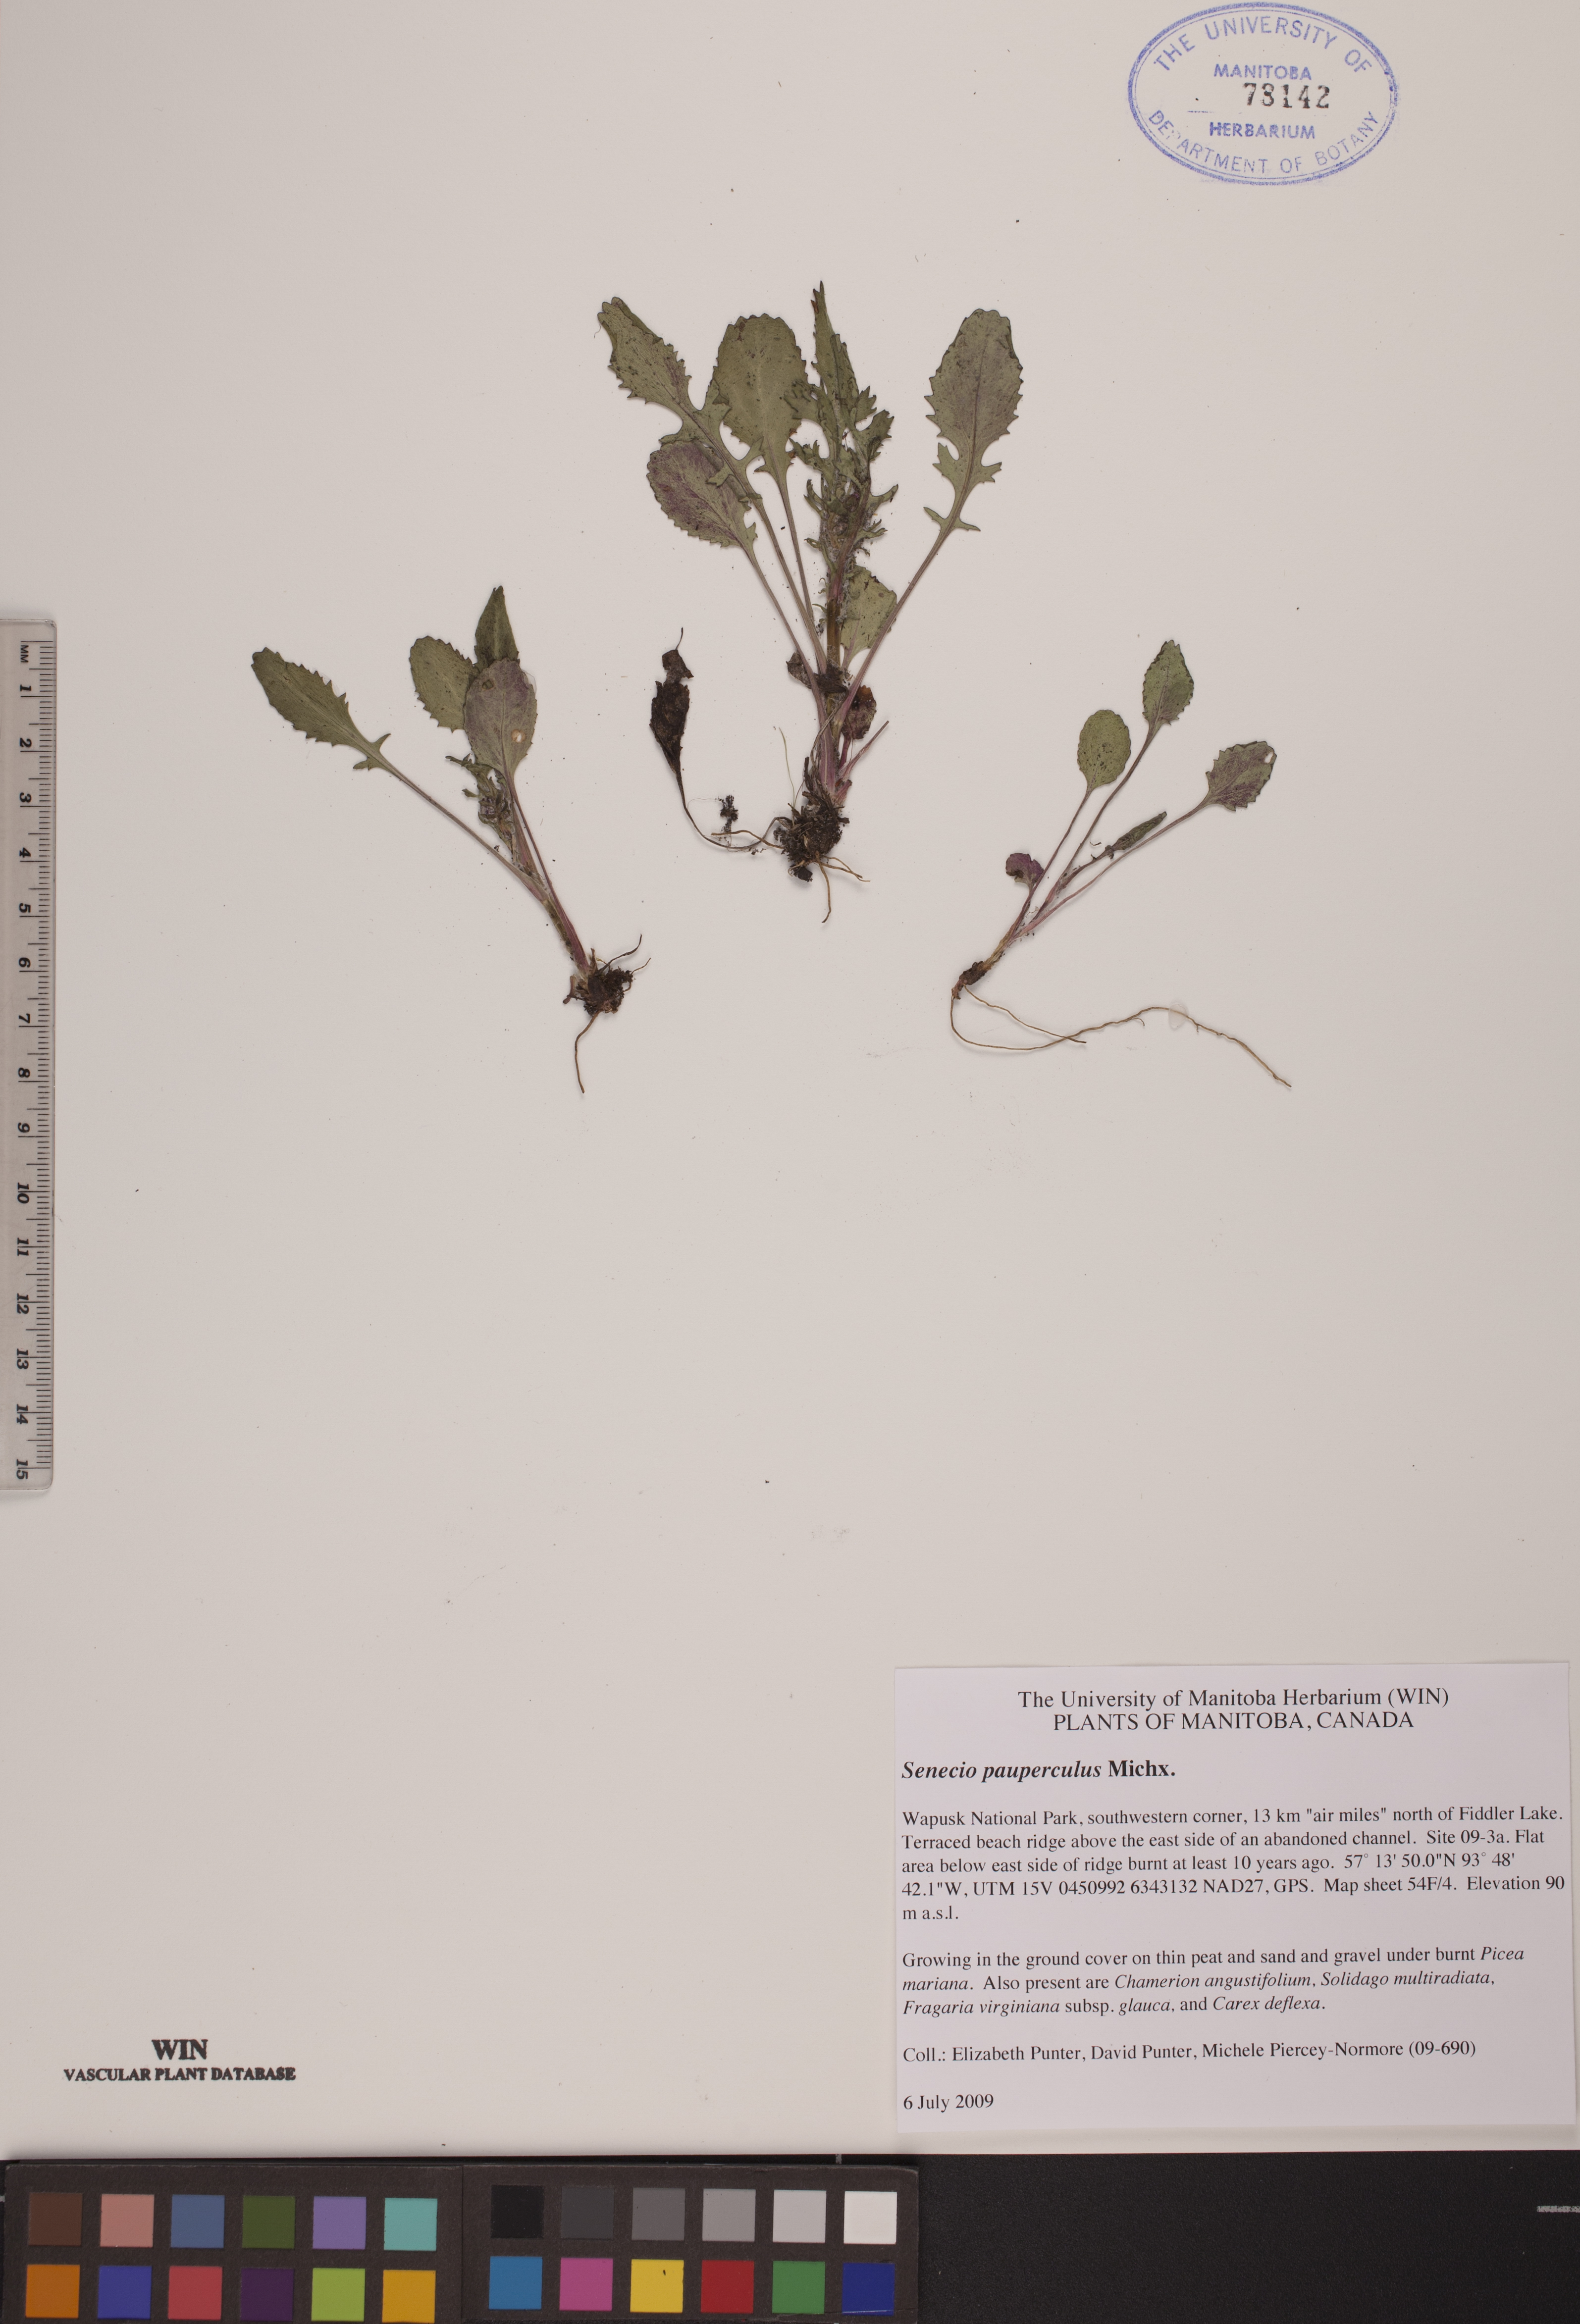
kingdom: Plantae
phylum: Tracheophyta
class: Magnoliopsida
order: Asterales
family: Asteraceae
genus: Packera
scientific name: Packera paupercula
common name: Balsam groundsel
